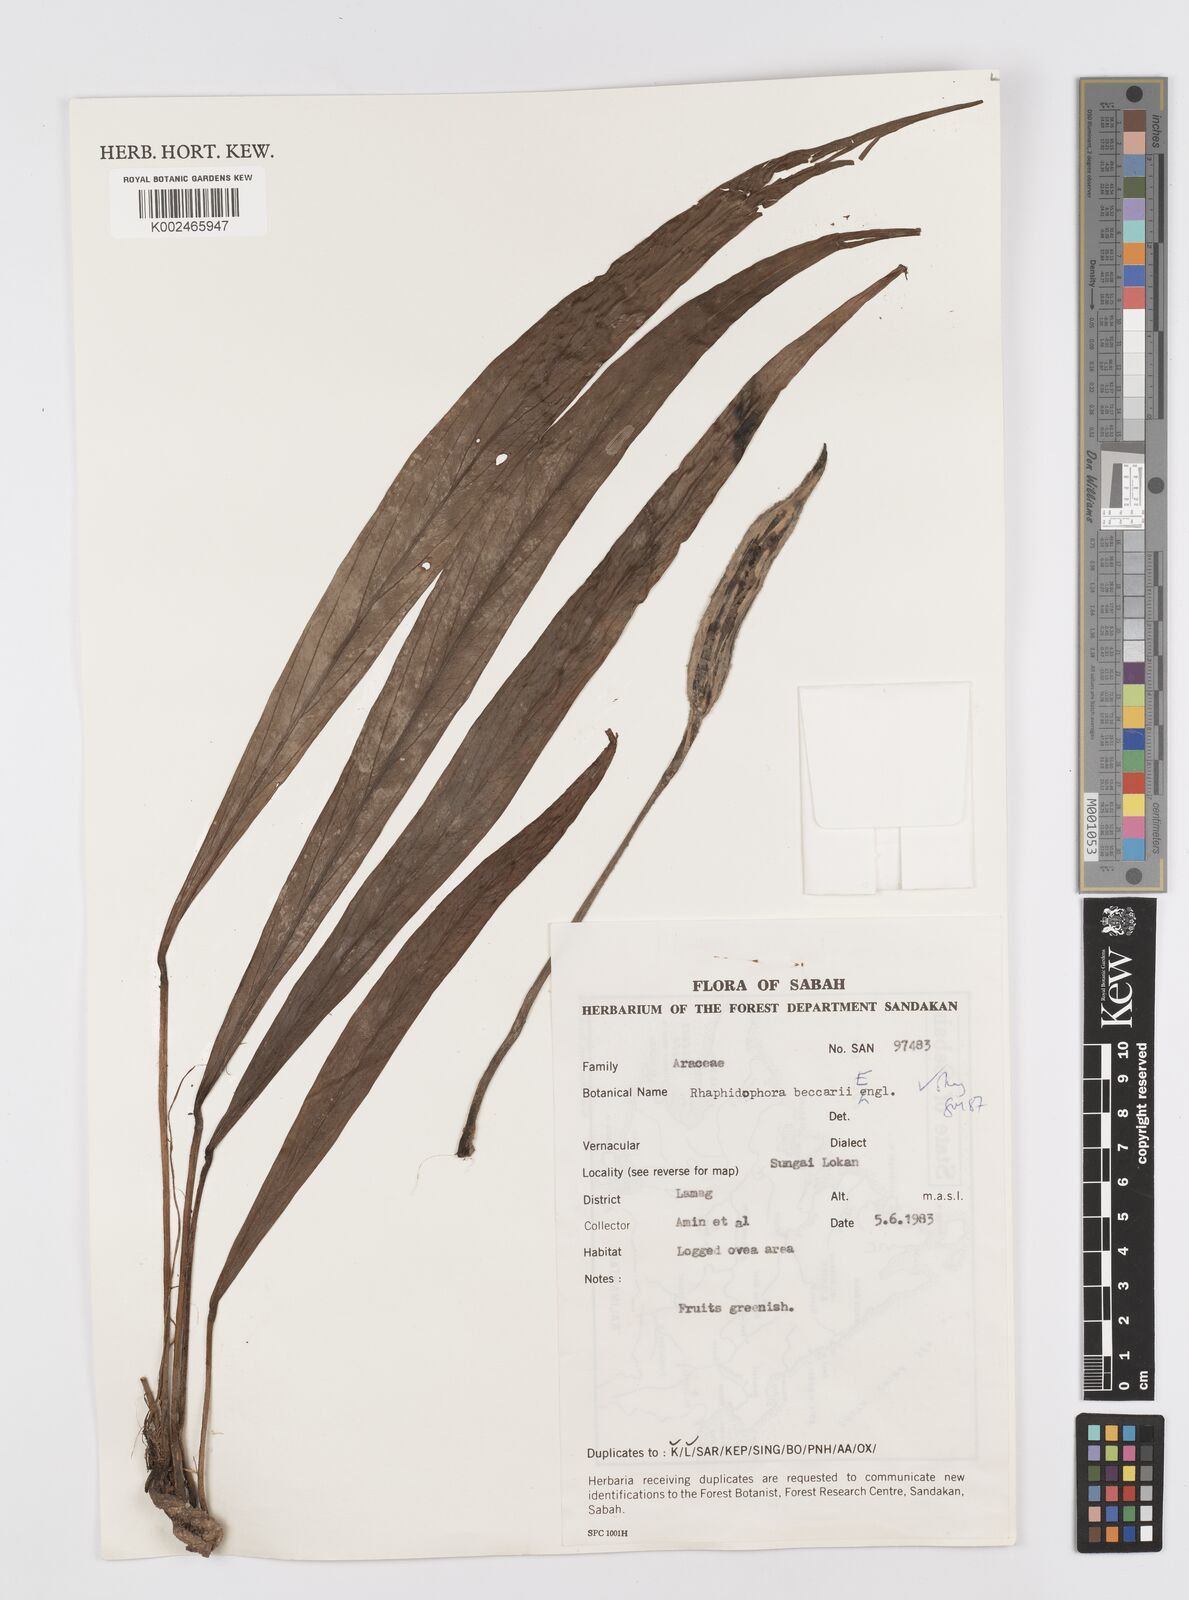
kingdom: Plantae
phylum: Tracheophyta
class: Liliopsida
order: Alismatales
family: Araceae
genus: Rhaphidophora
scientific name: Rhaphidophora beccarii
